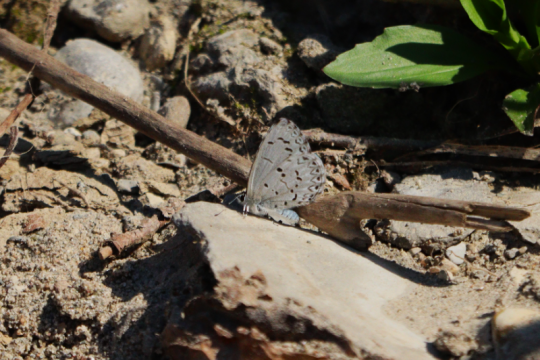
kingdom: Animalia
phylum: Arthropoda
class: Insecta
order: Lepidoptera
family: Lycaenidae
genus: Celastrina
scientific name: Celastrina lucia
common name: Northern Spring Azure
